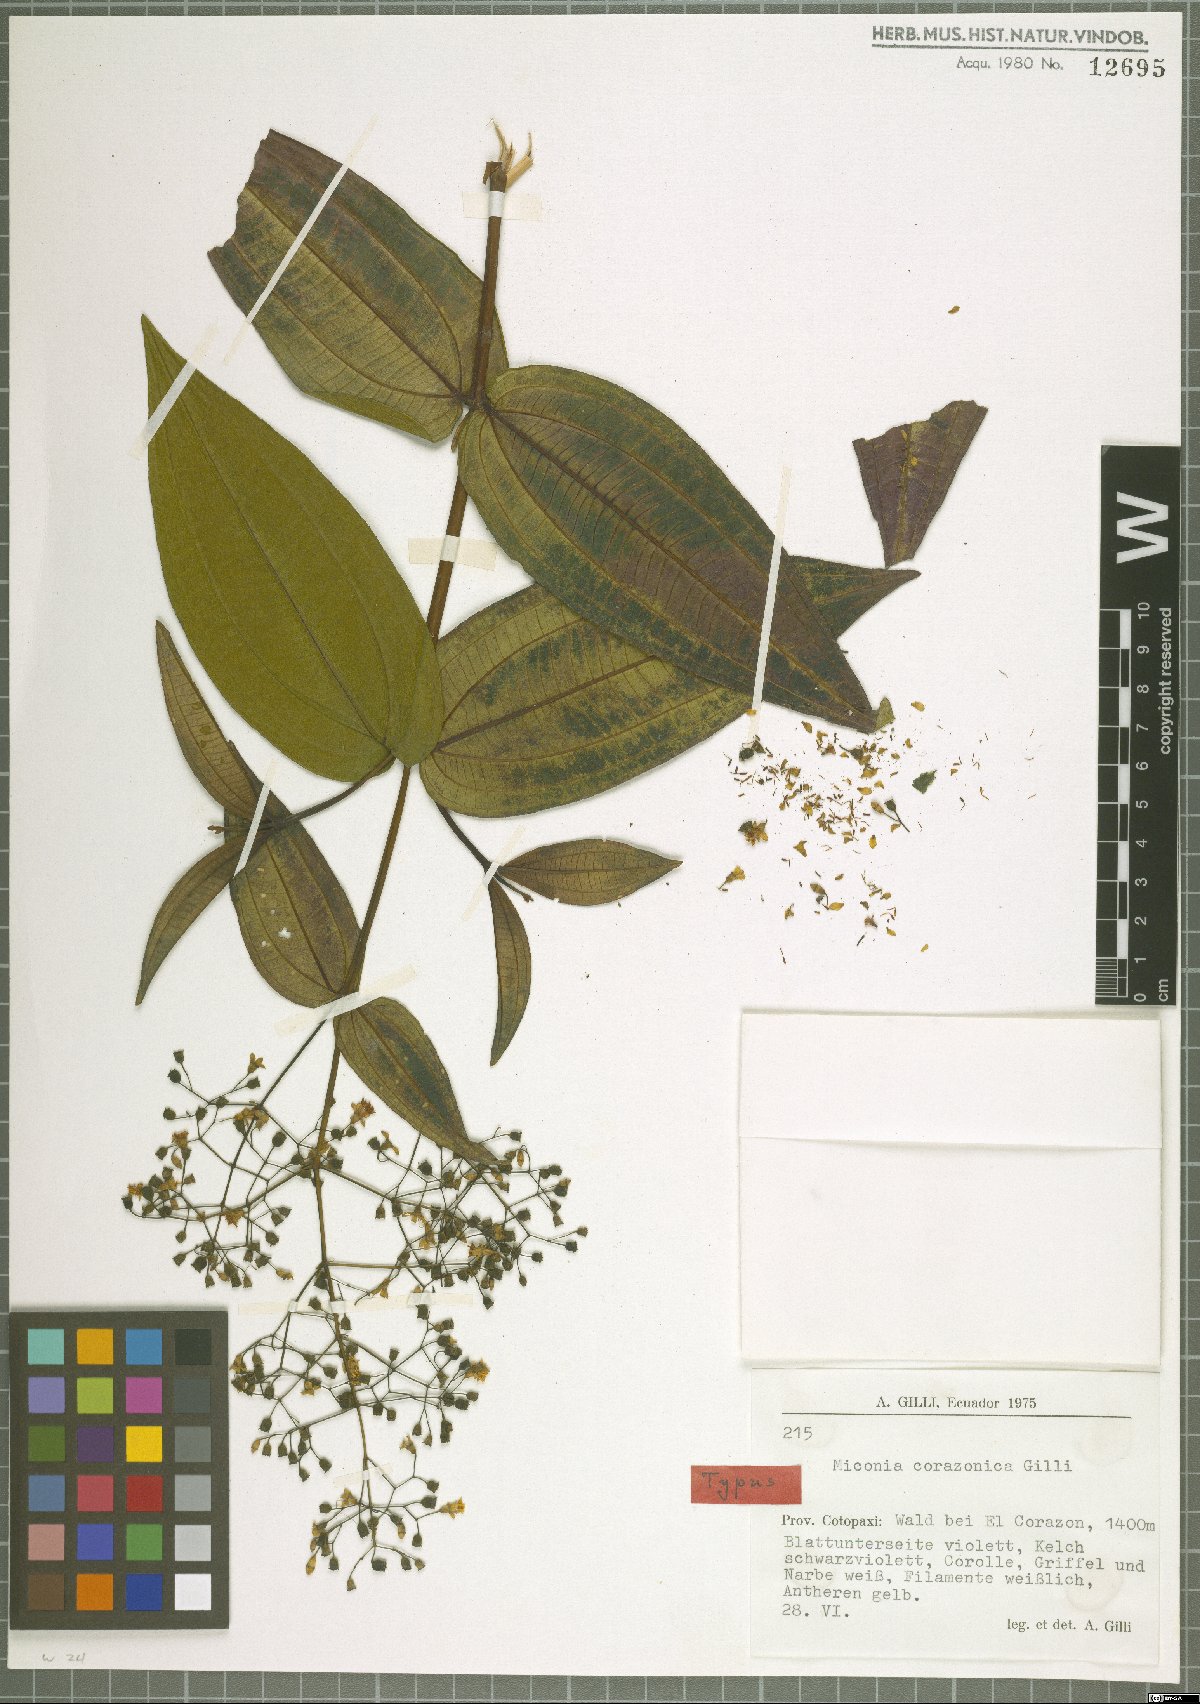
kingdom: Plantae
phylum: Tracheophyta
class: Magnoliopsida
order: Myrtales
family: Melastomataceae
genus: Miconia
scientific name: Miconia asclepiadea
